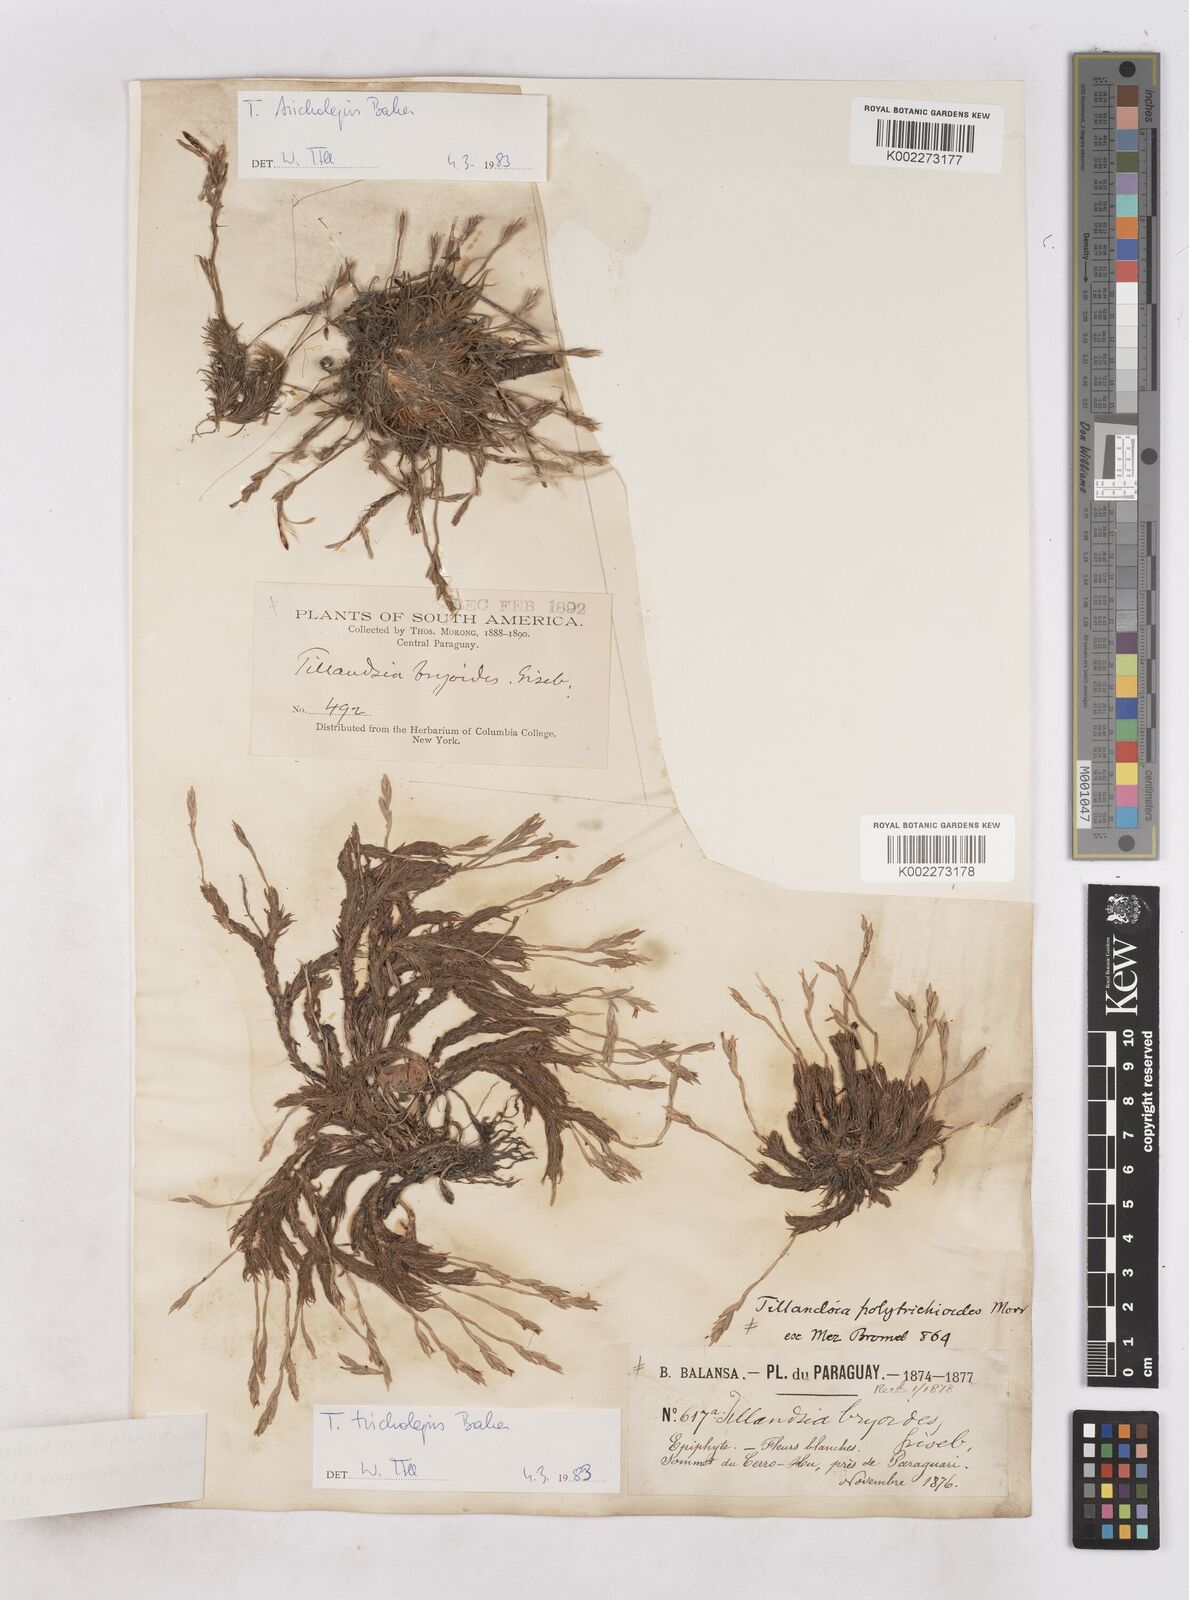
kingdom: Plantae
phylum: Tracheophyta
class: Liliopsida
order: Poales
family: Bromeliaceae
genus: Tillandsia
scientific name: Tillandsia tricholepis
